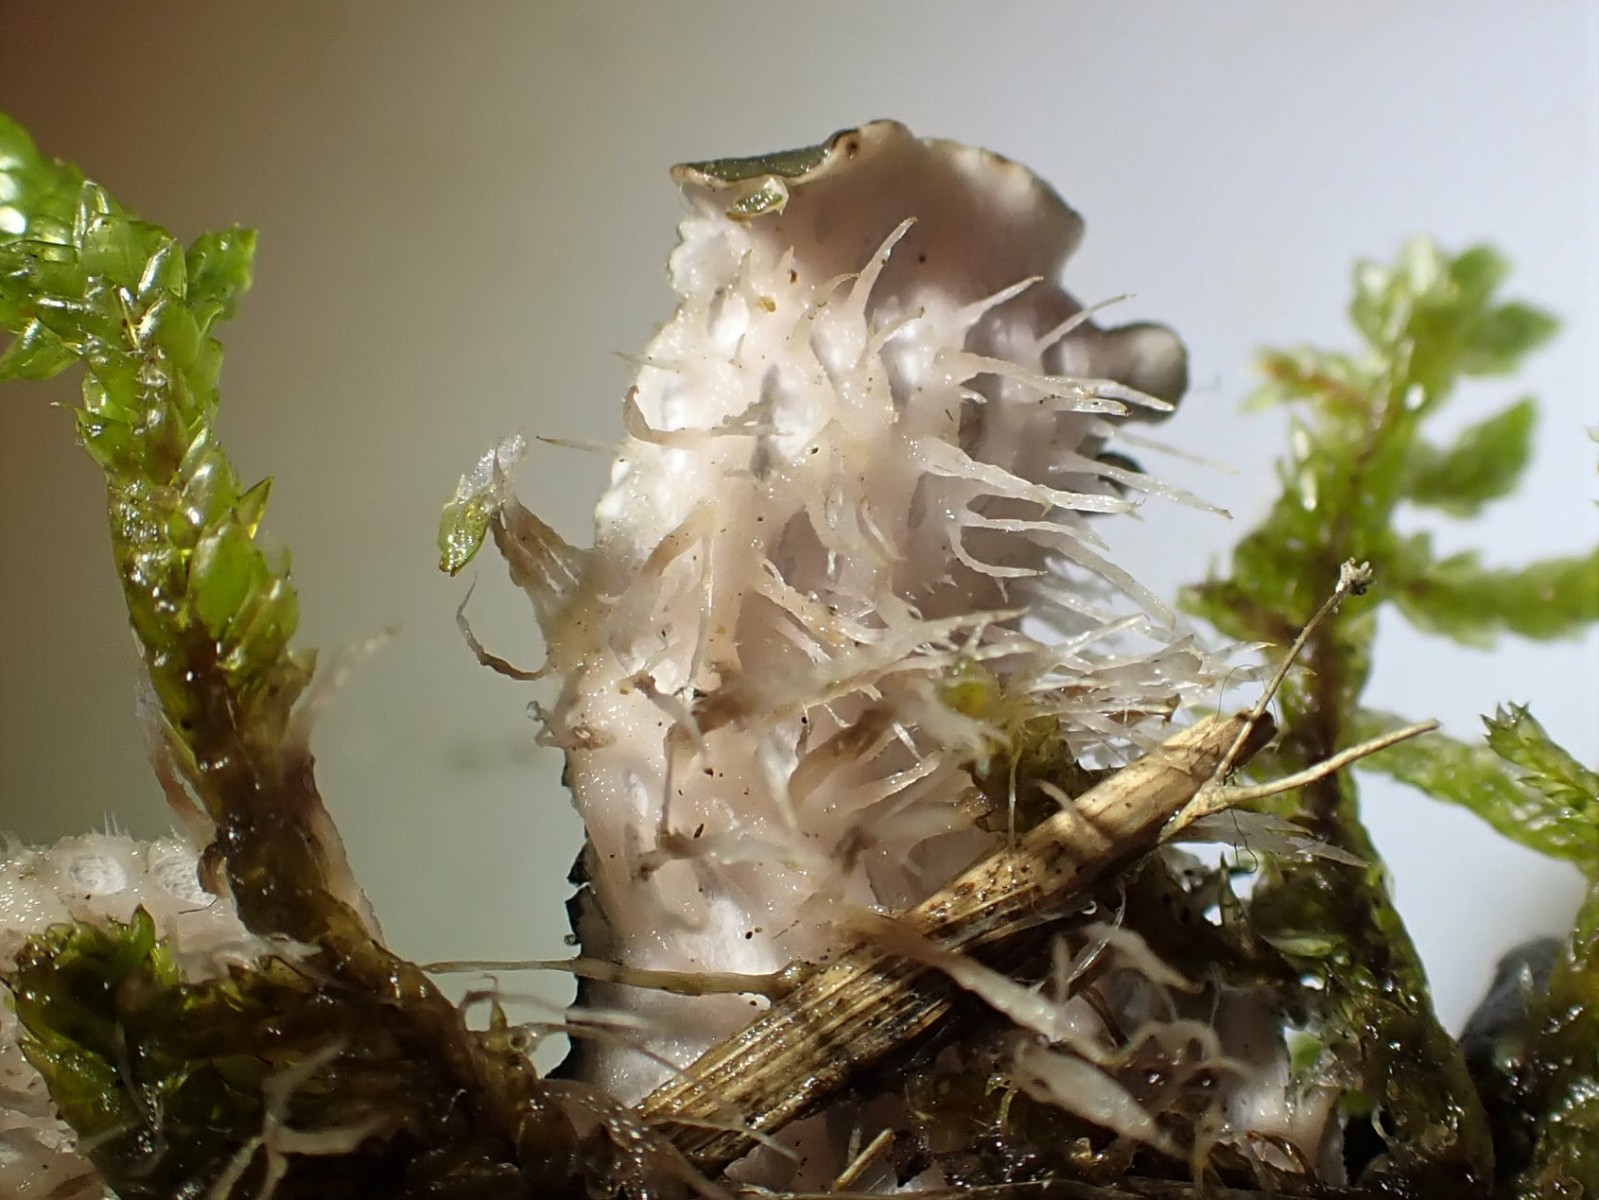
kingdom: Fungi
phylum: Ascomycota
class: Lecanoromycetes
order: Peltigerales
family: Peltigeraceae
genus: Peltigera
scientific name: Peltigera hymenina
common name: hinde-skjoldlav
